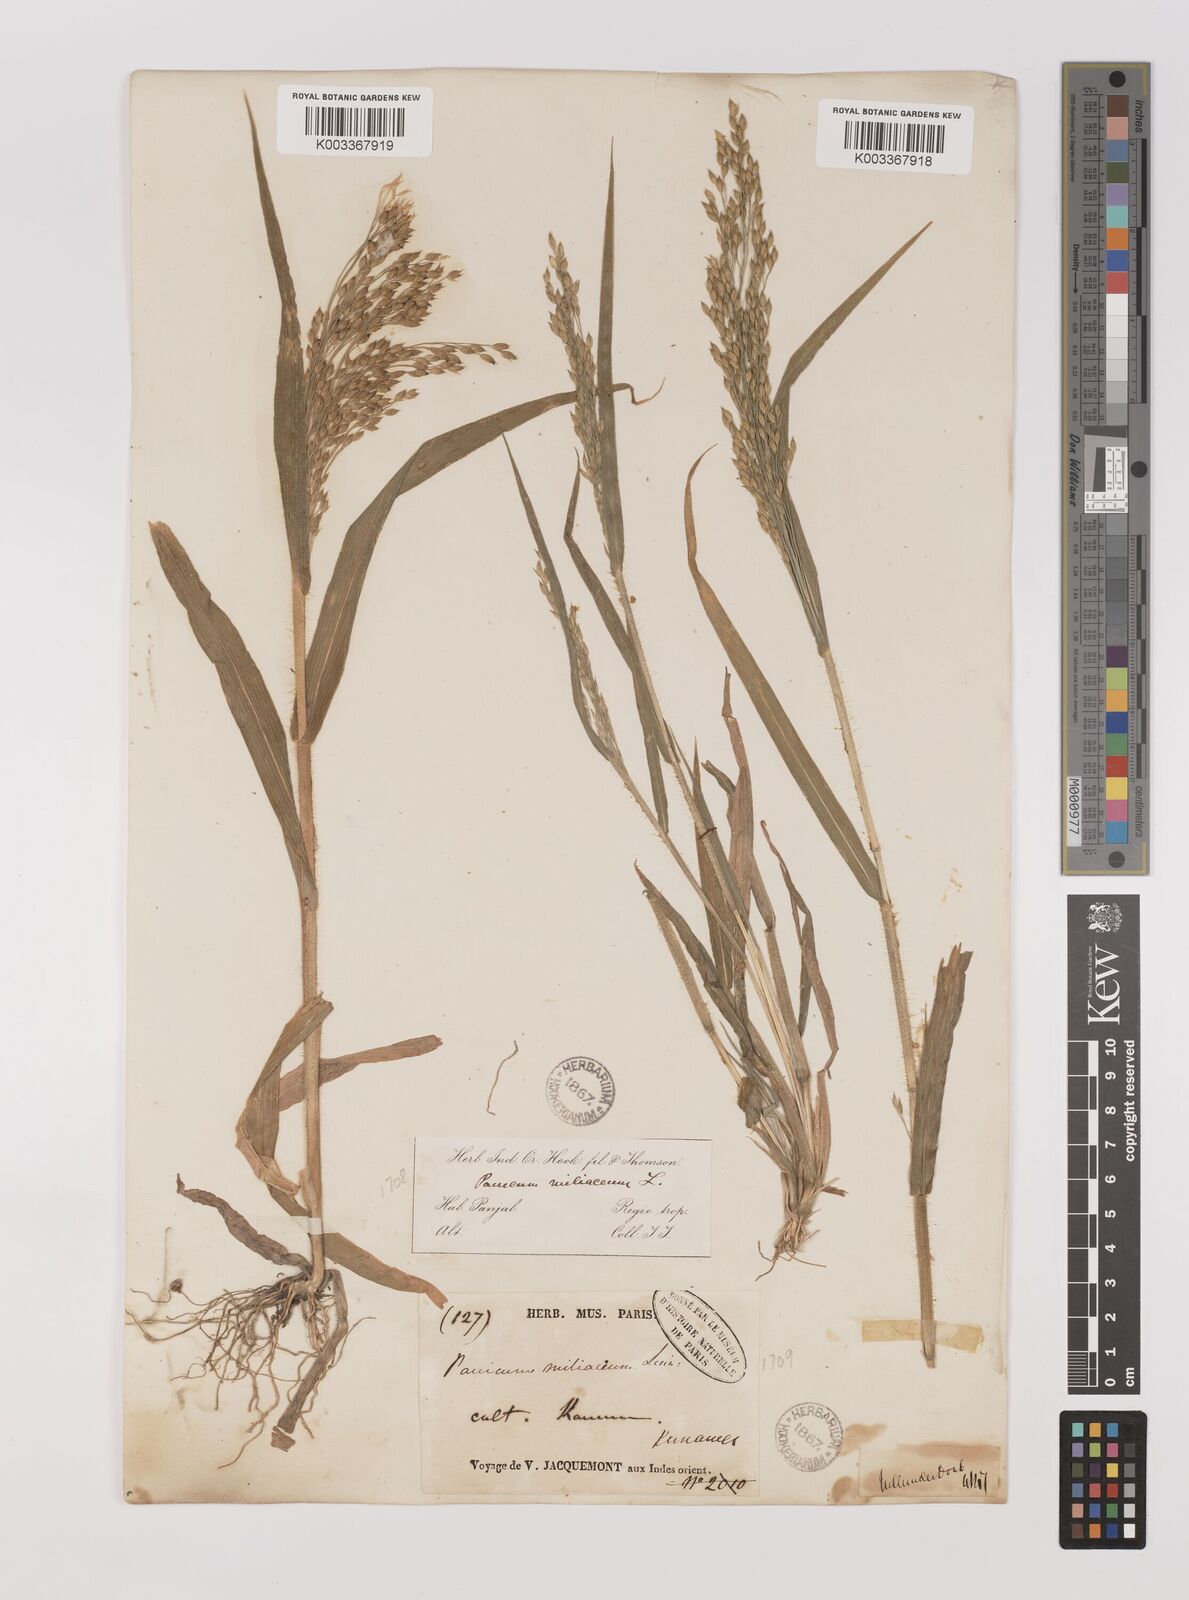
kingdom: Plantae
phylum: Tracheophyta
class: Liliopsida
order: Poales
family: Poaceae
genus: Panicum
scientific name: Panicum miliaceum
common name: Common millet
